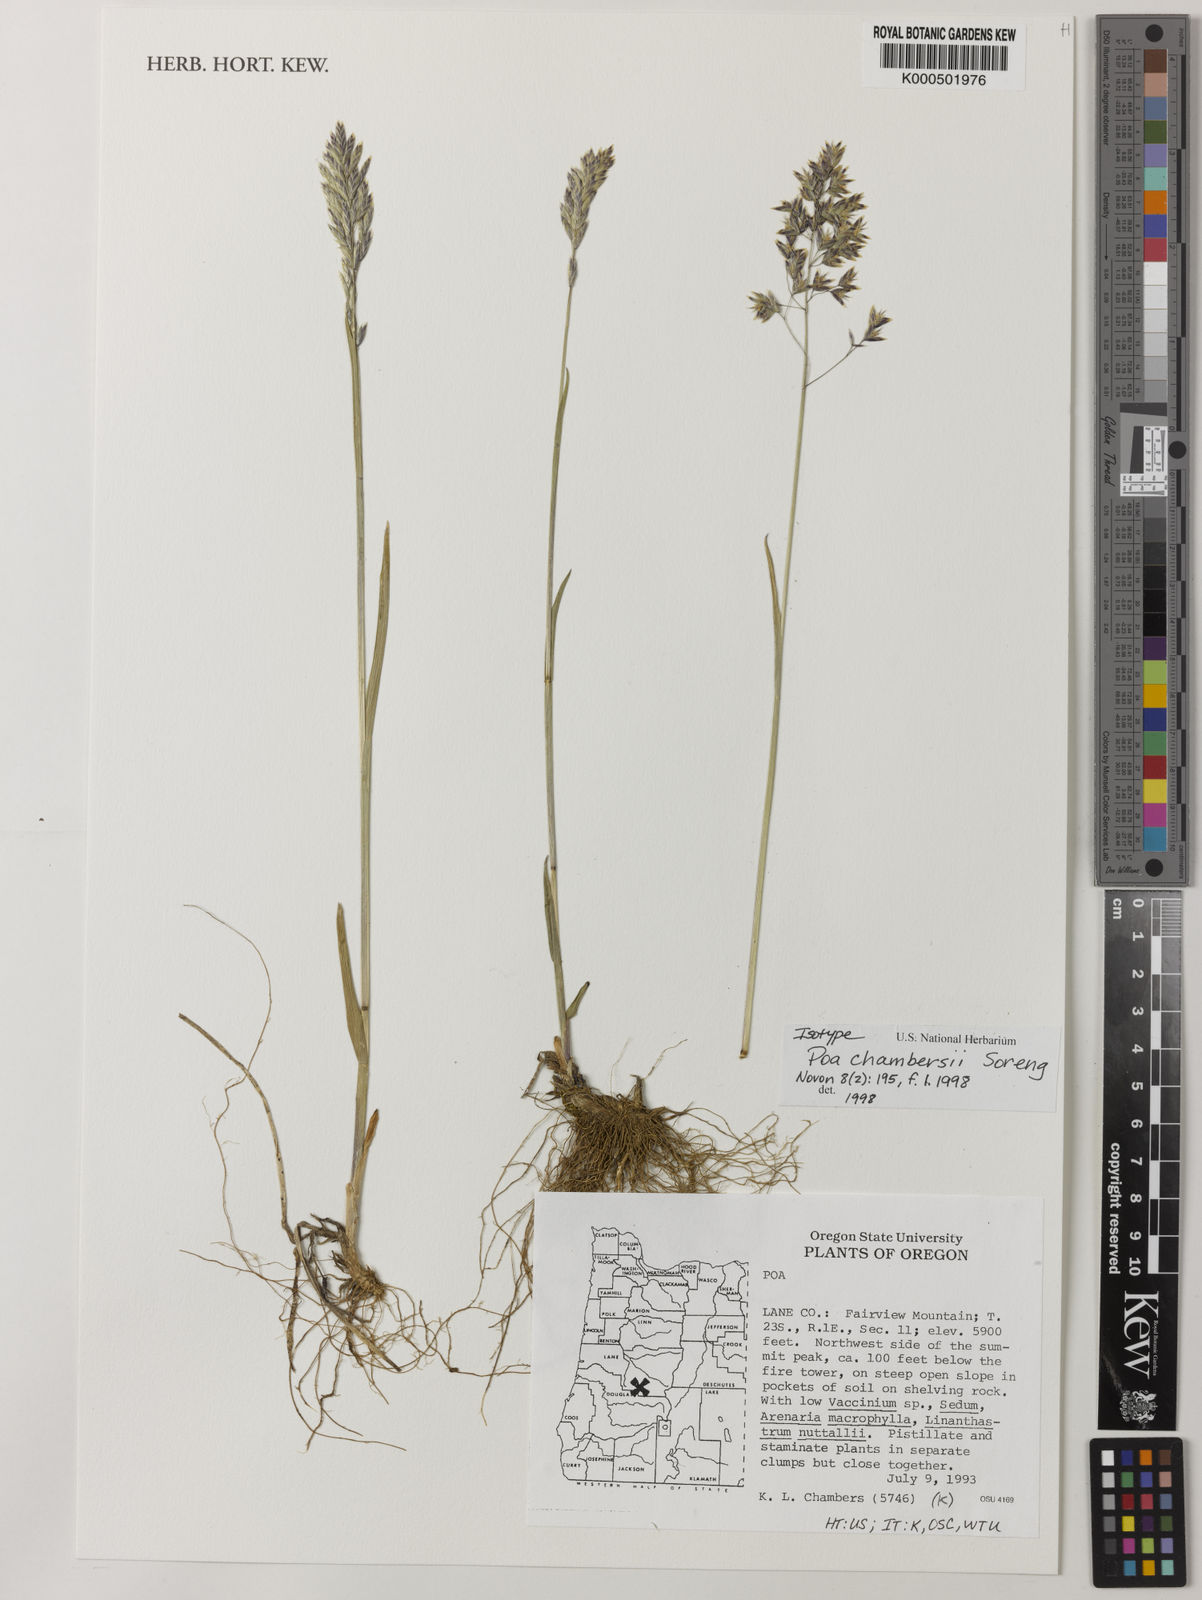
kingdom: Plantae
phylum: Tracheophyta
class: Liliopsida
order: Poales
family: Poaceae
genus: Poa
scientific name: Poa chambersii
